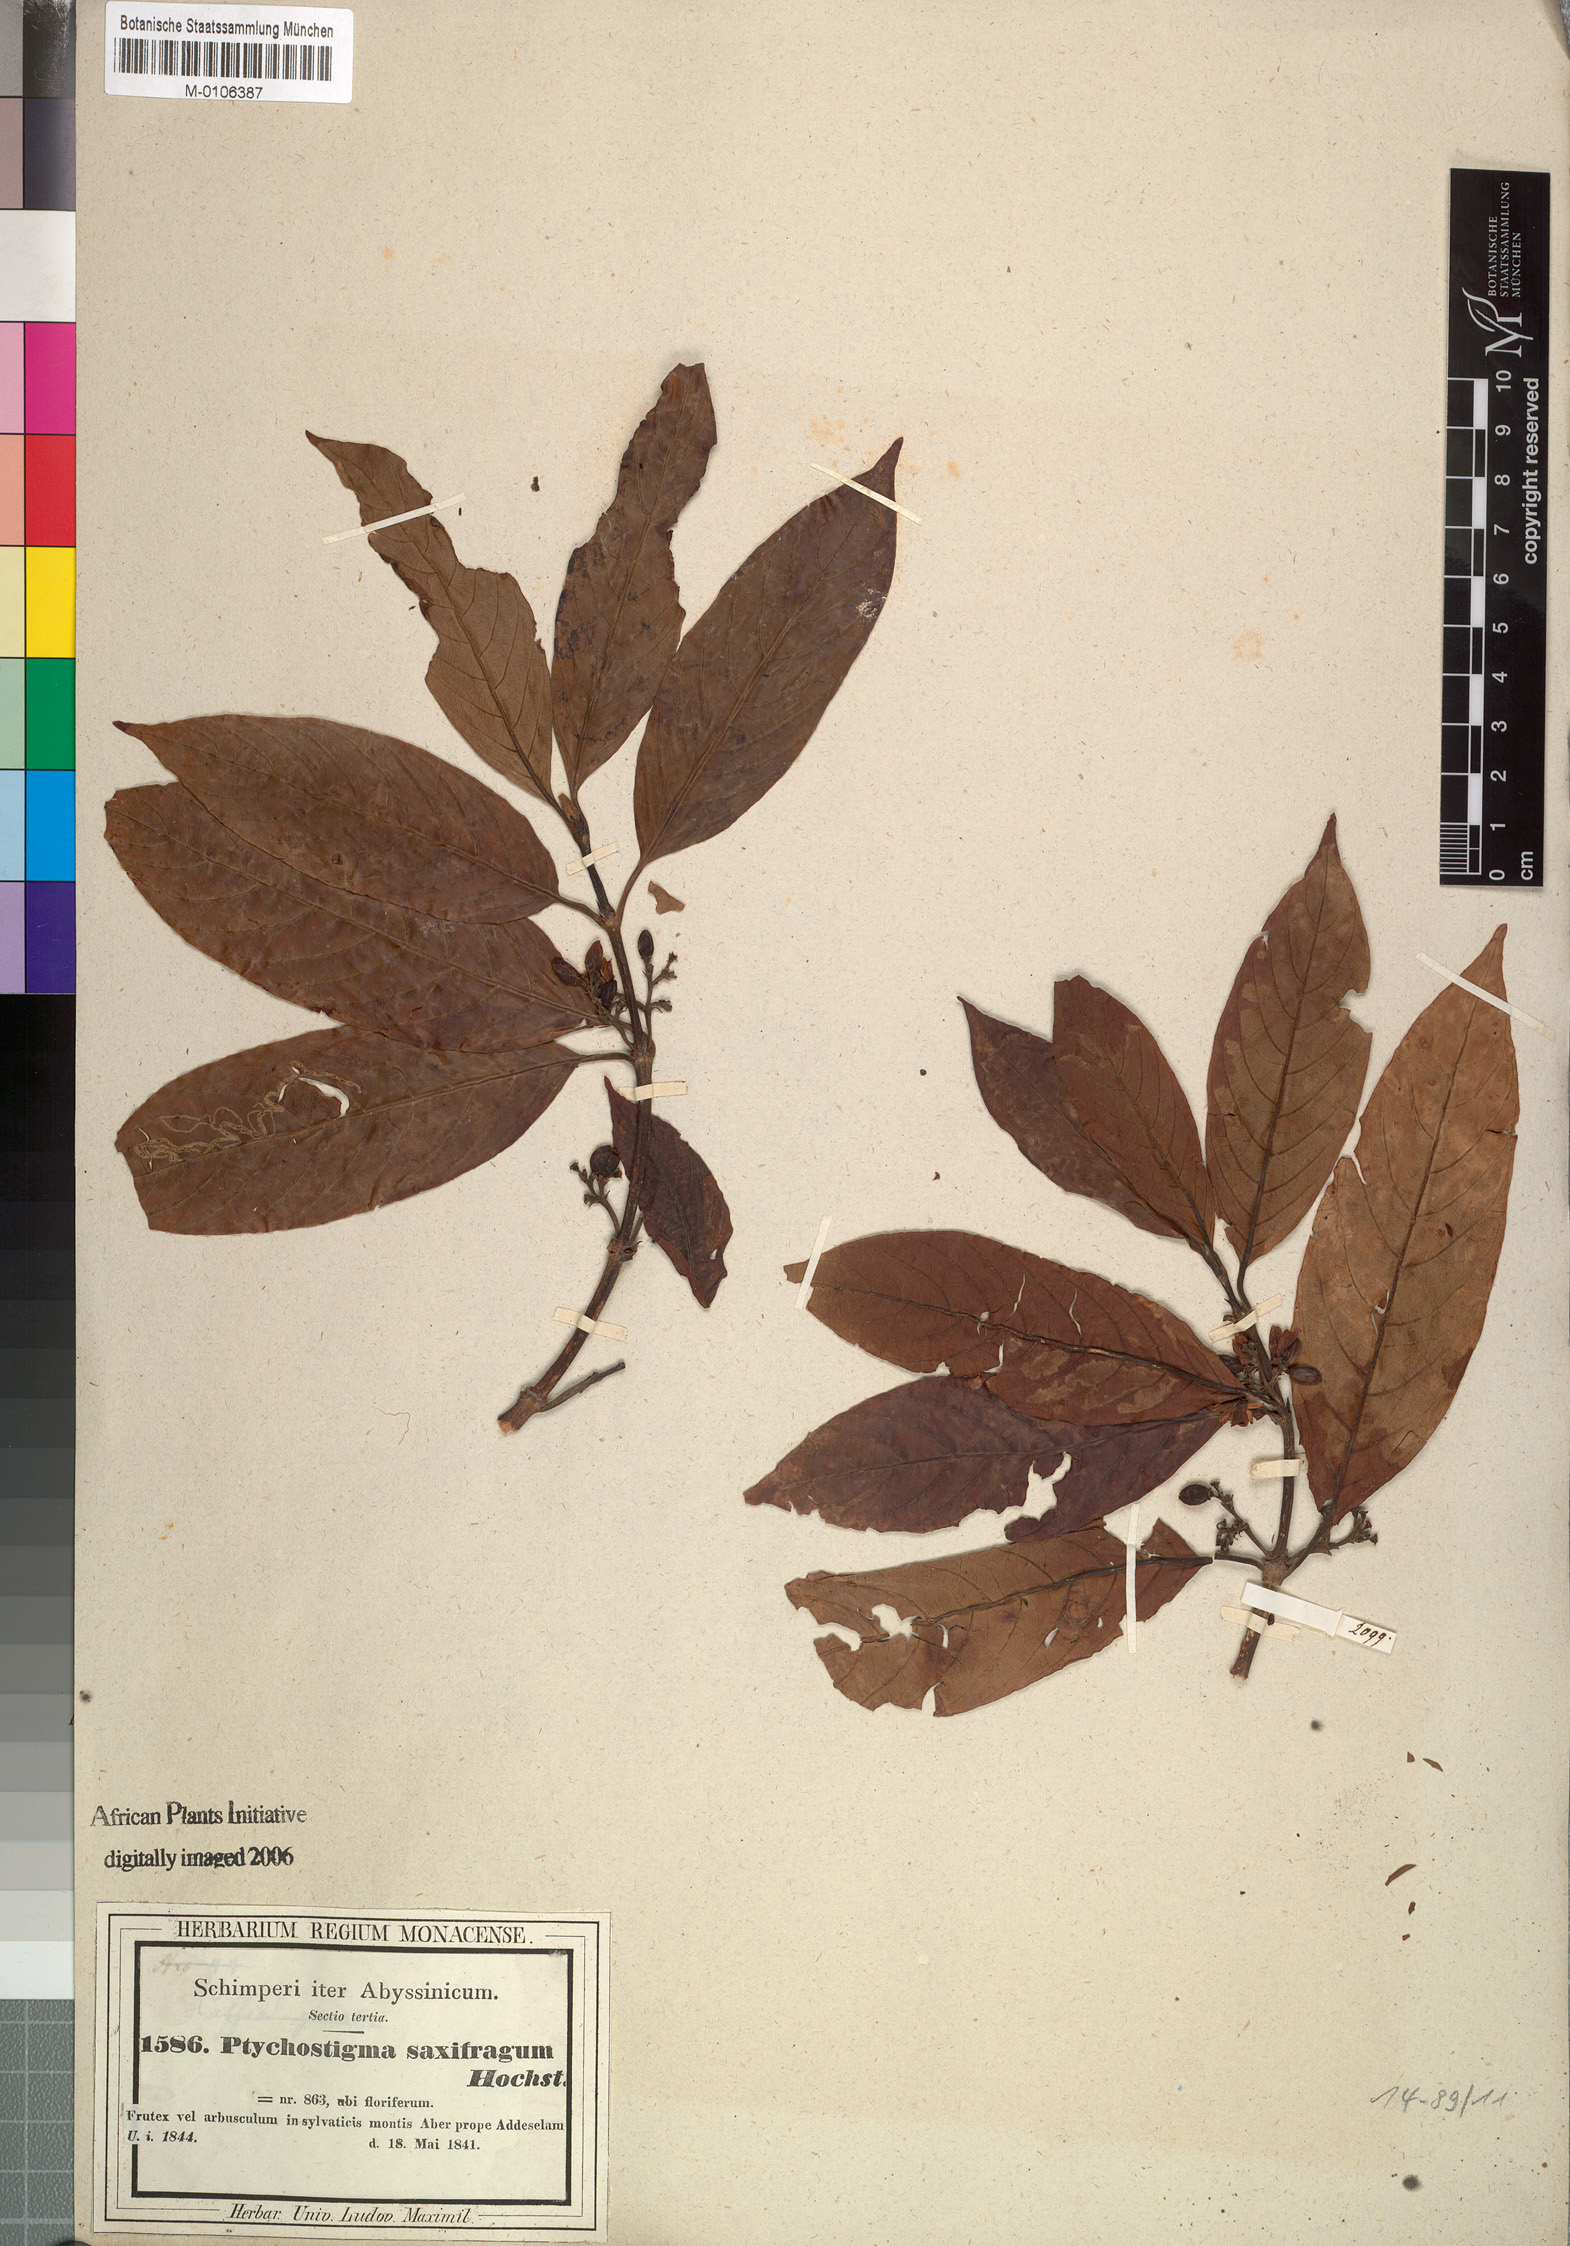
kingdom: Plantae
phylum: Tracheophyta
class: Magnoliopsida
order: Gentianales
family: Rubiaceae
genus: Pouchetia
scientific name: Pouchetia saxifraga
